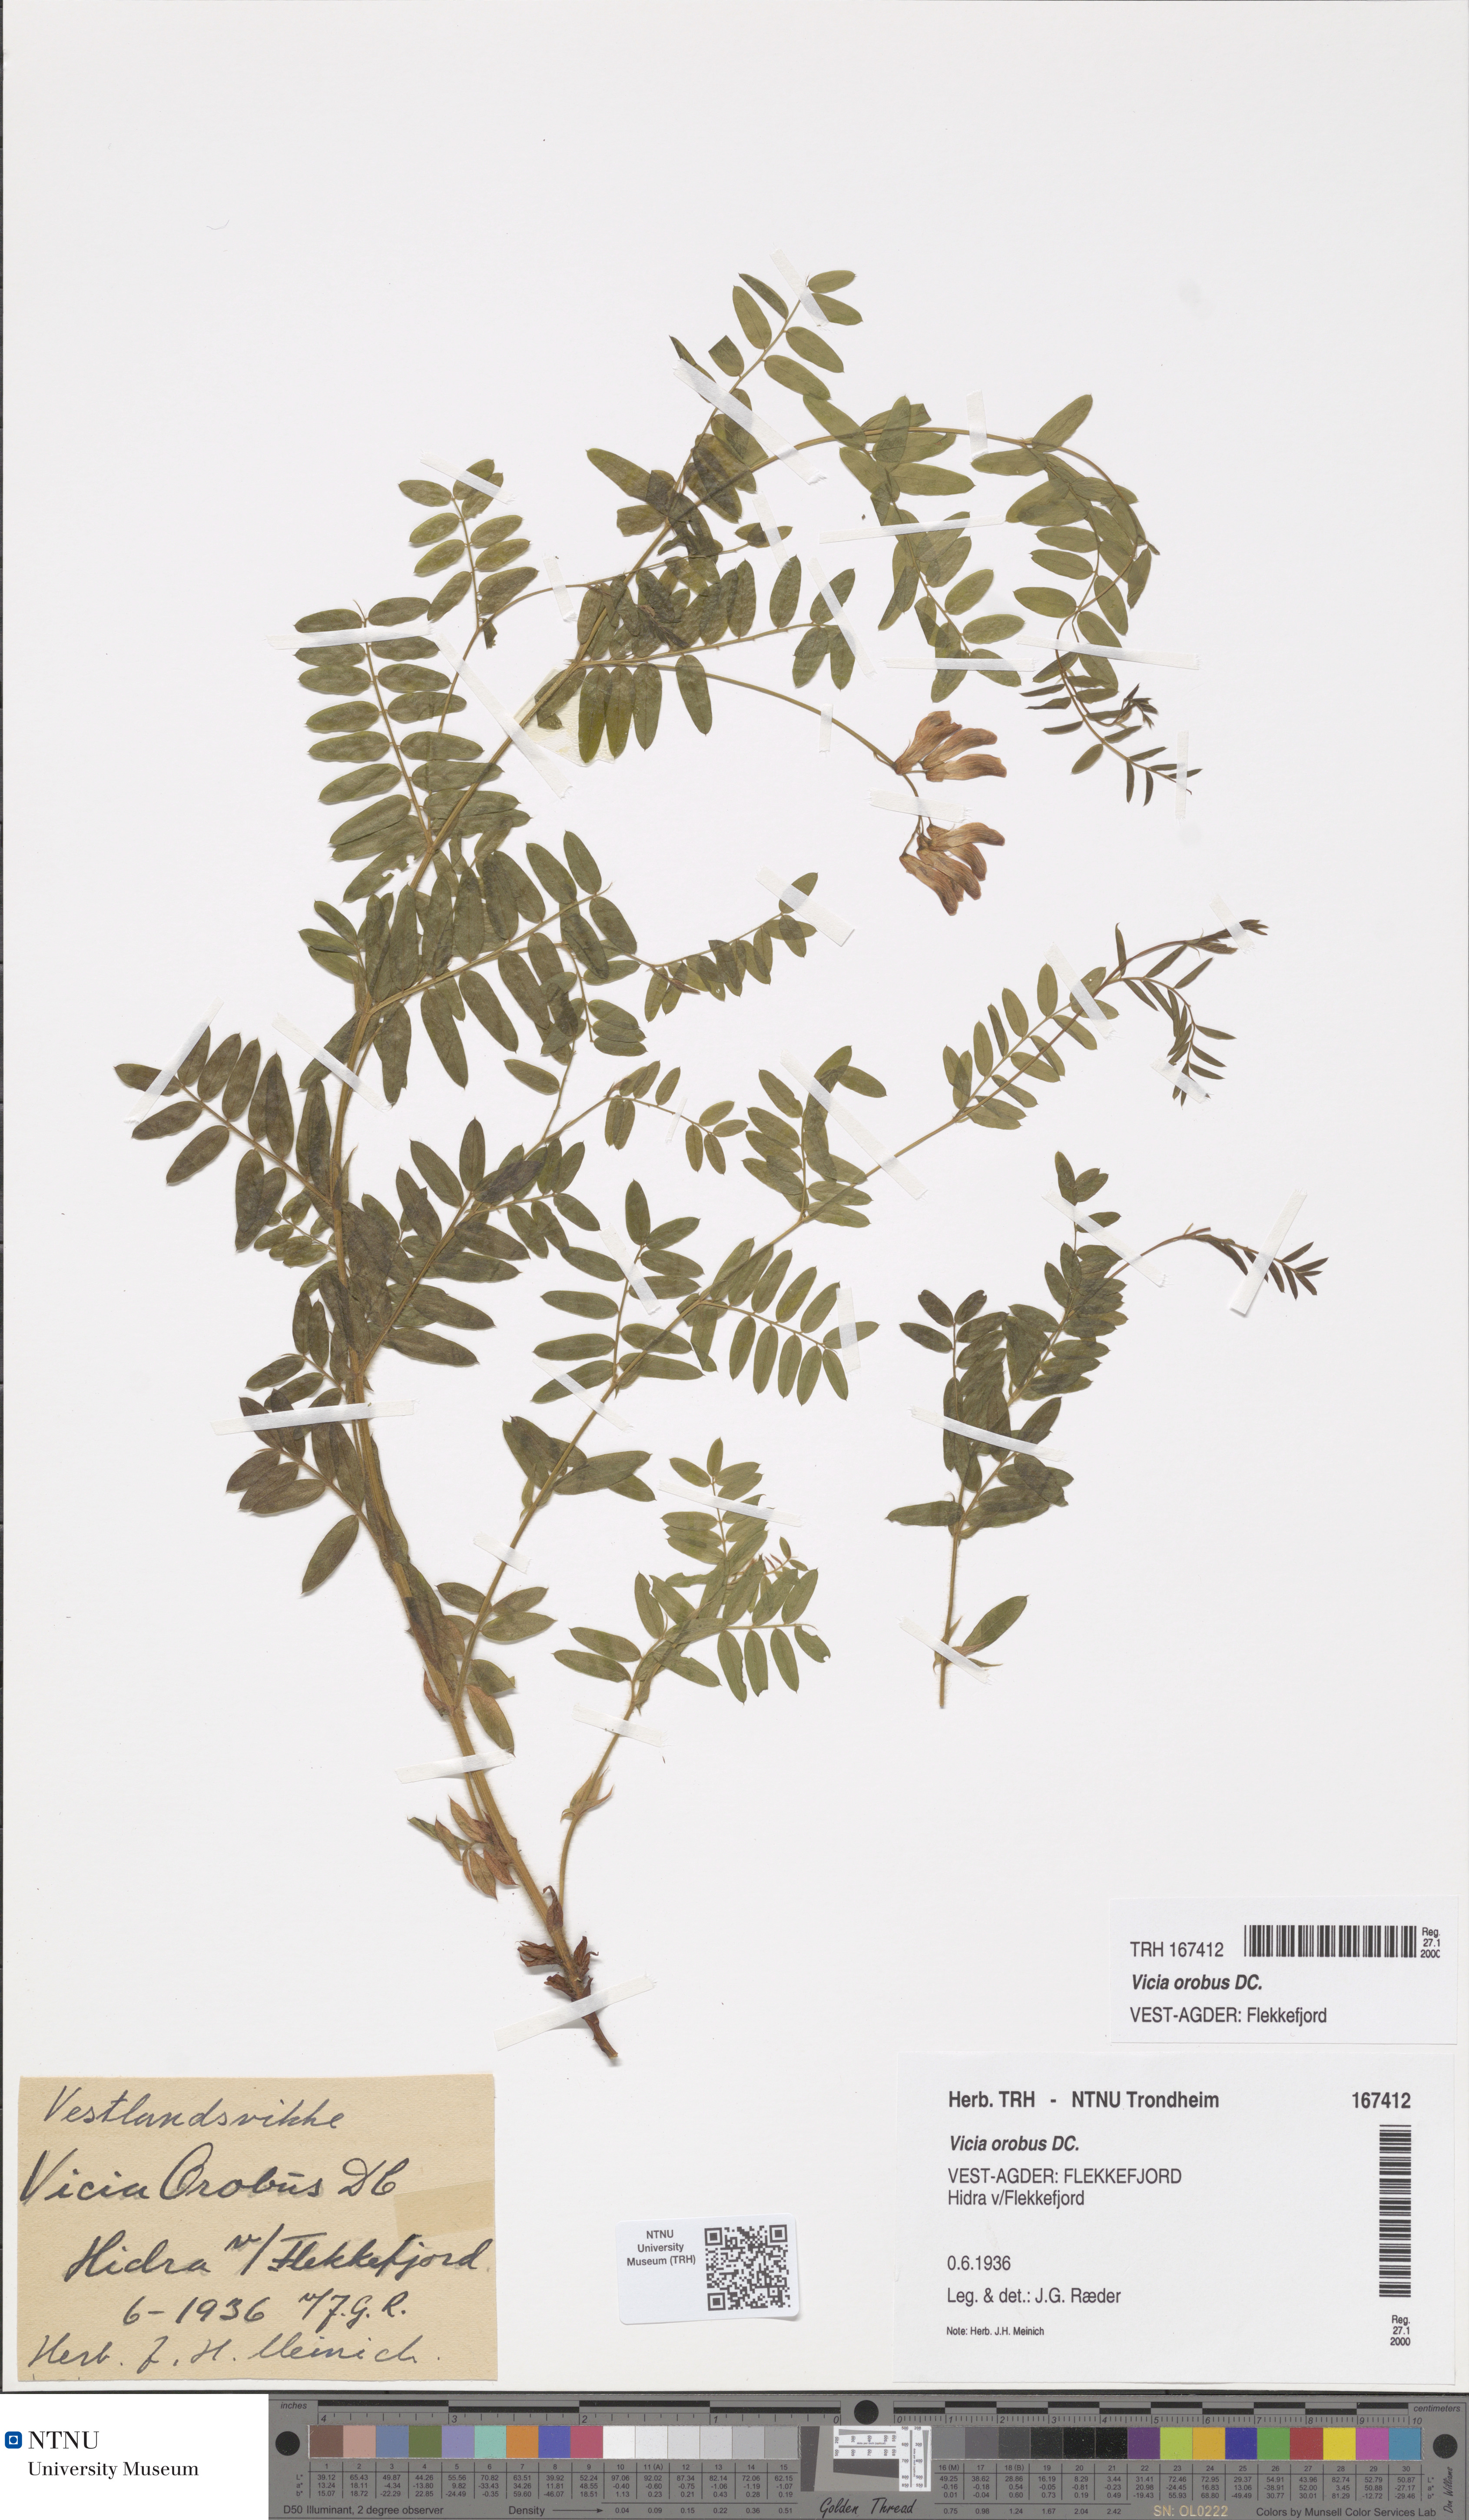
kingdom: Plantae
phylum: Tracheophyta
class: Magnoliopsida
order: Fabales
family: Fabaceae
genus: Vicia
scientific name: Vicia orobus
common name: Wood bitter-vetch
